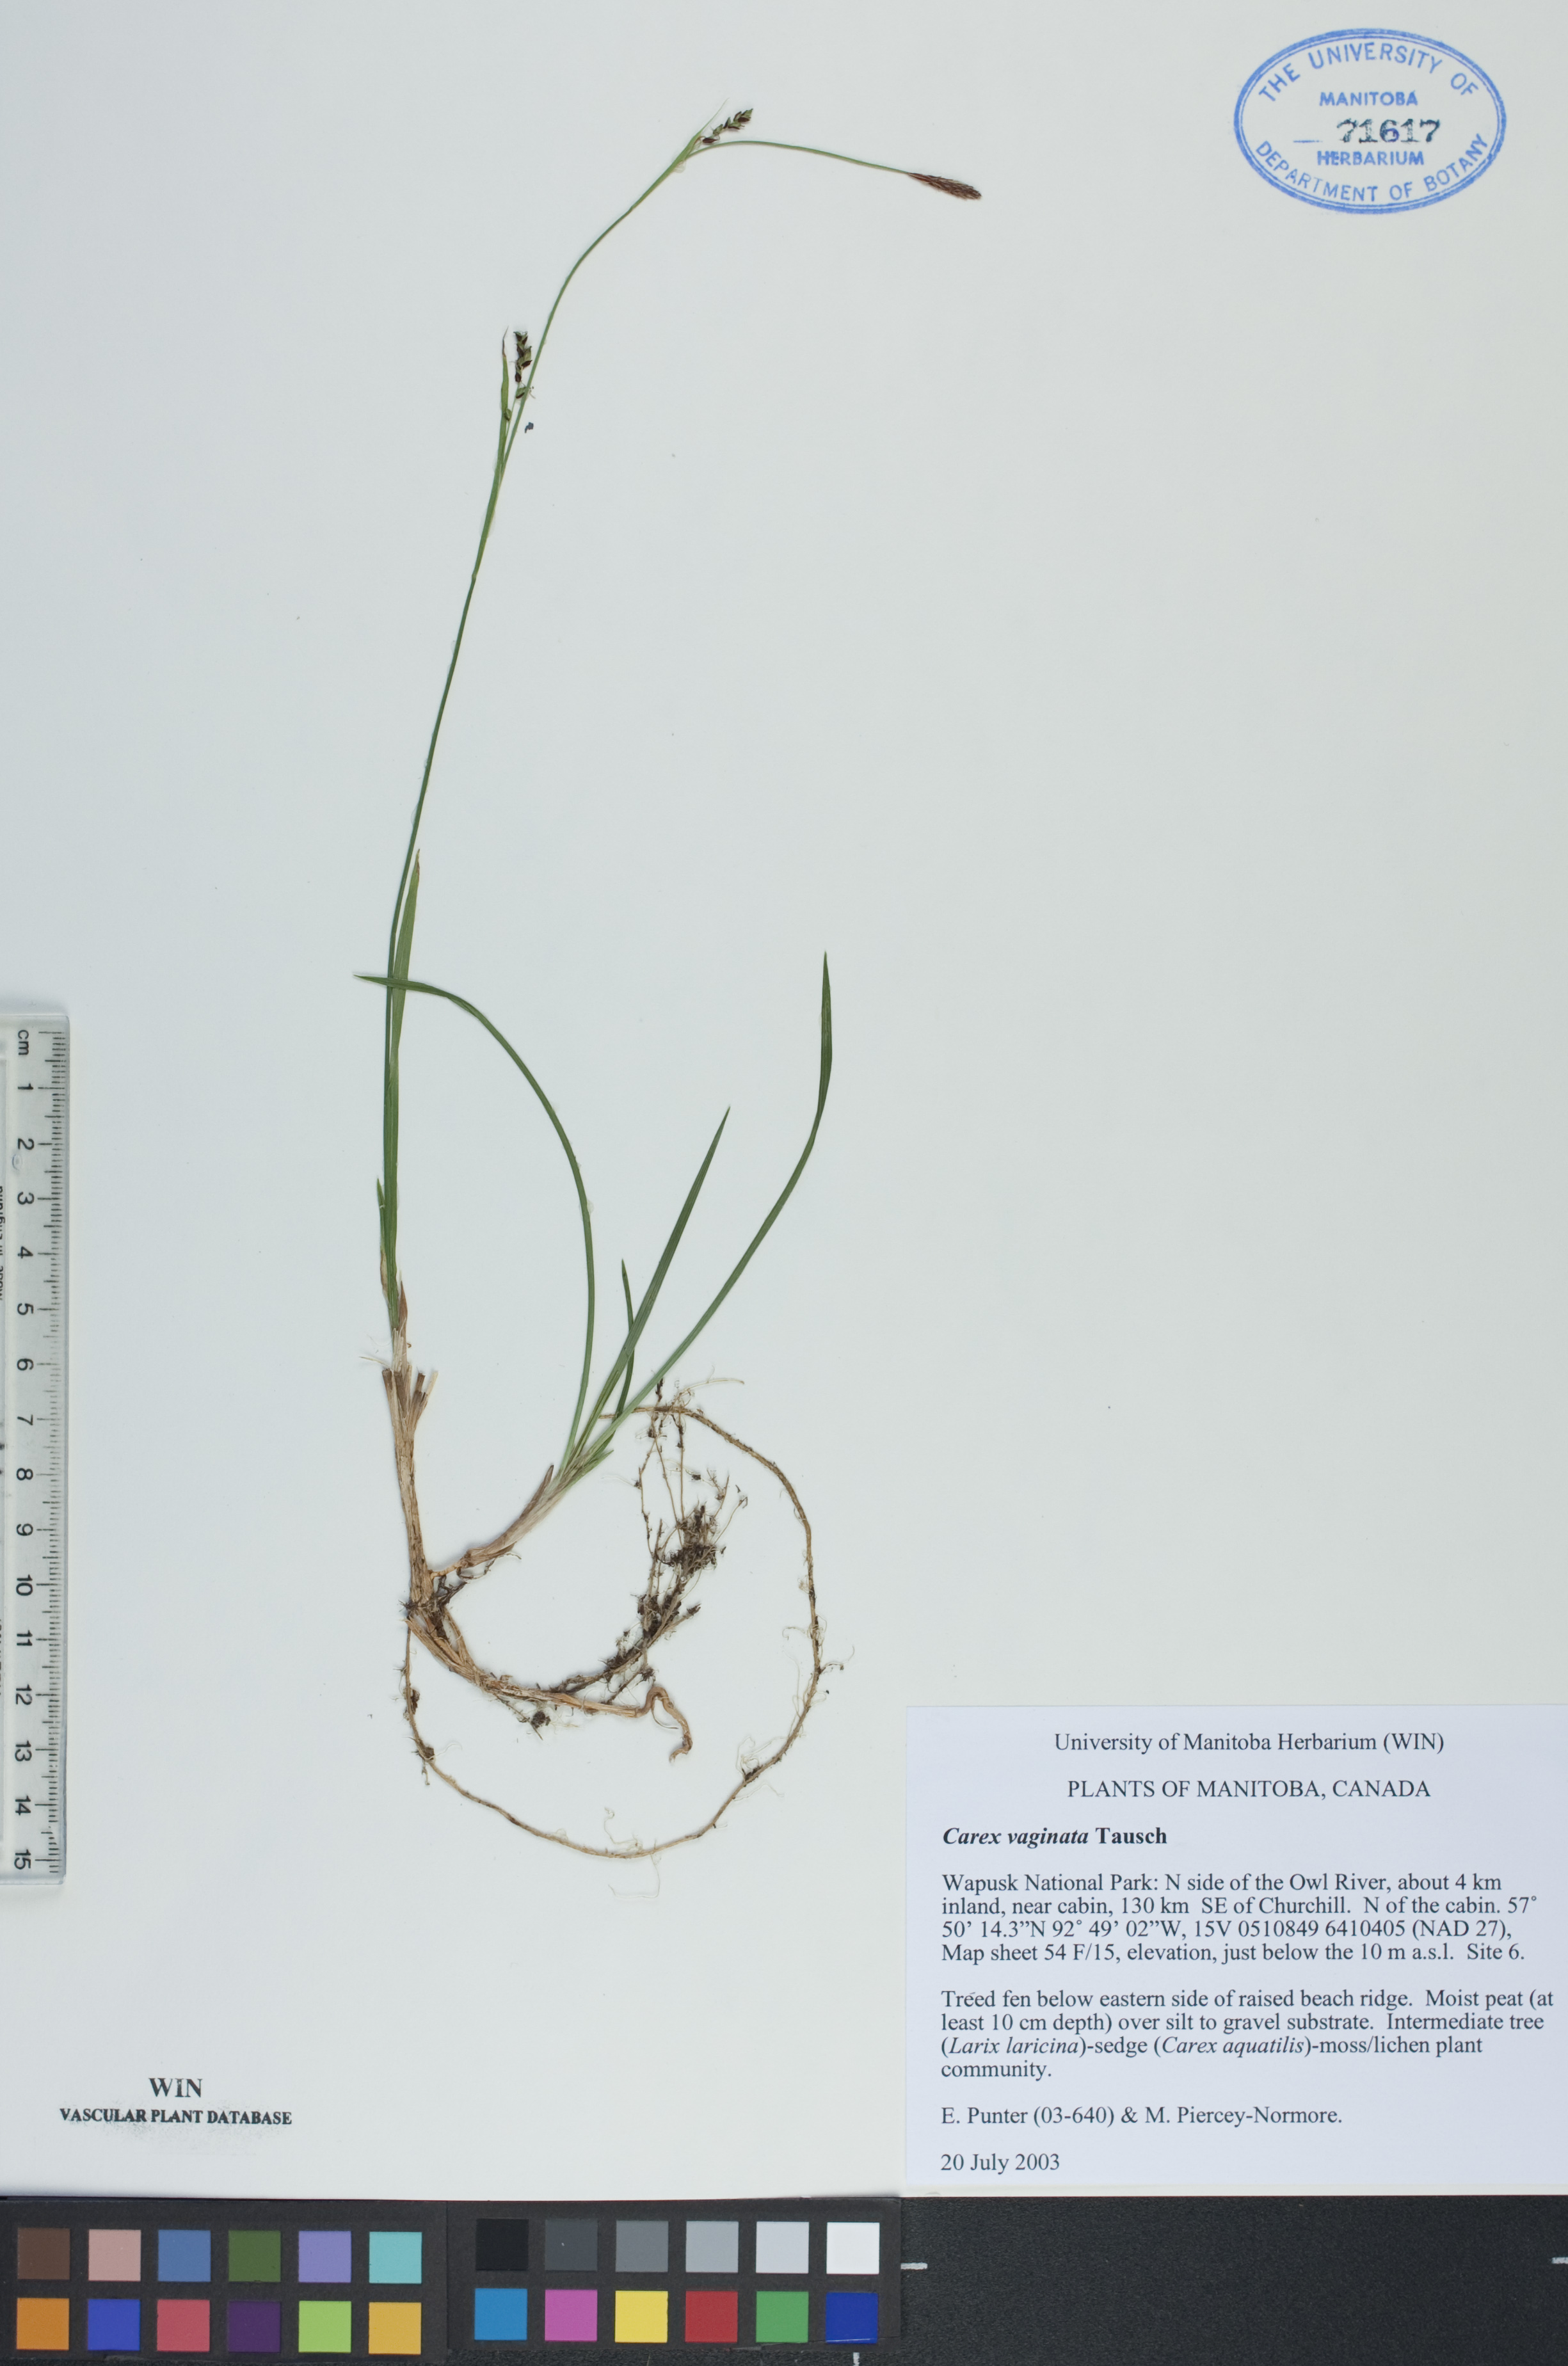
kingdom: Plantae
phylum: Tracheophyta
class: Liliopsida
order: Poales
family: Cyperaceae
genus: Carex
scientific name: Carex vaginata
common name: Sheathed sedge
